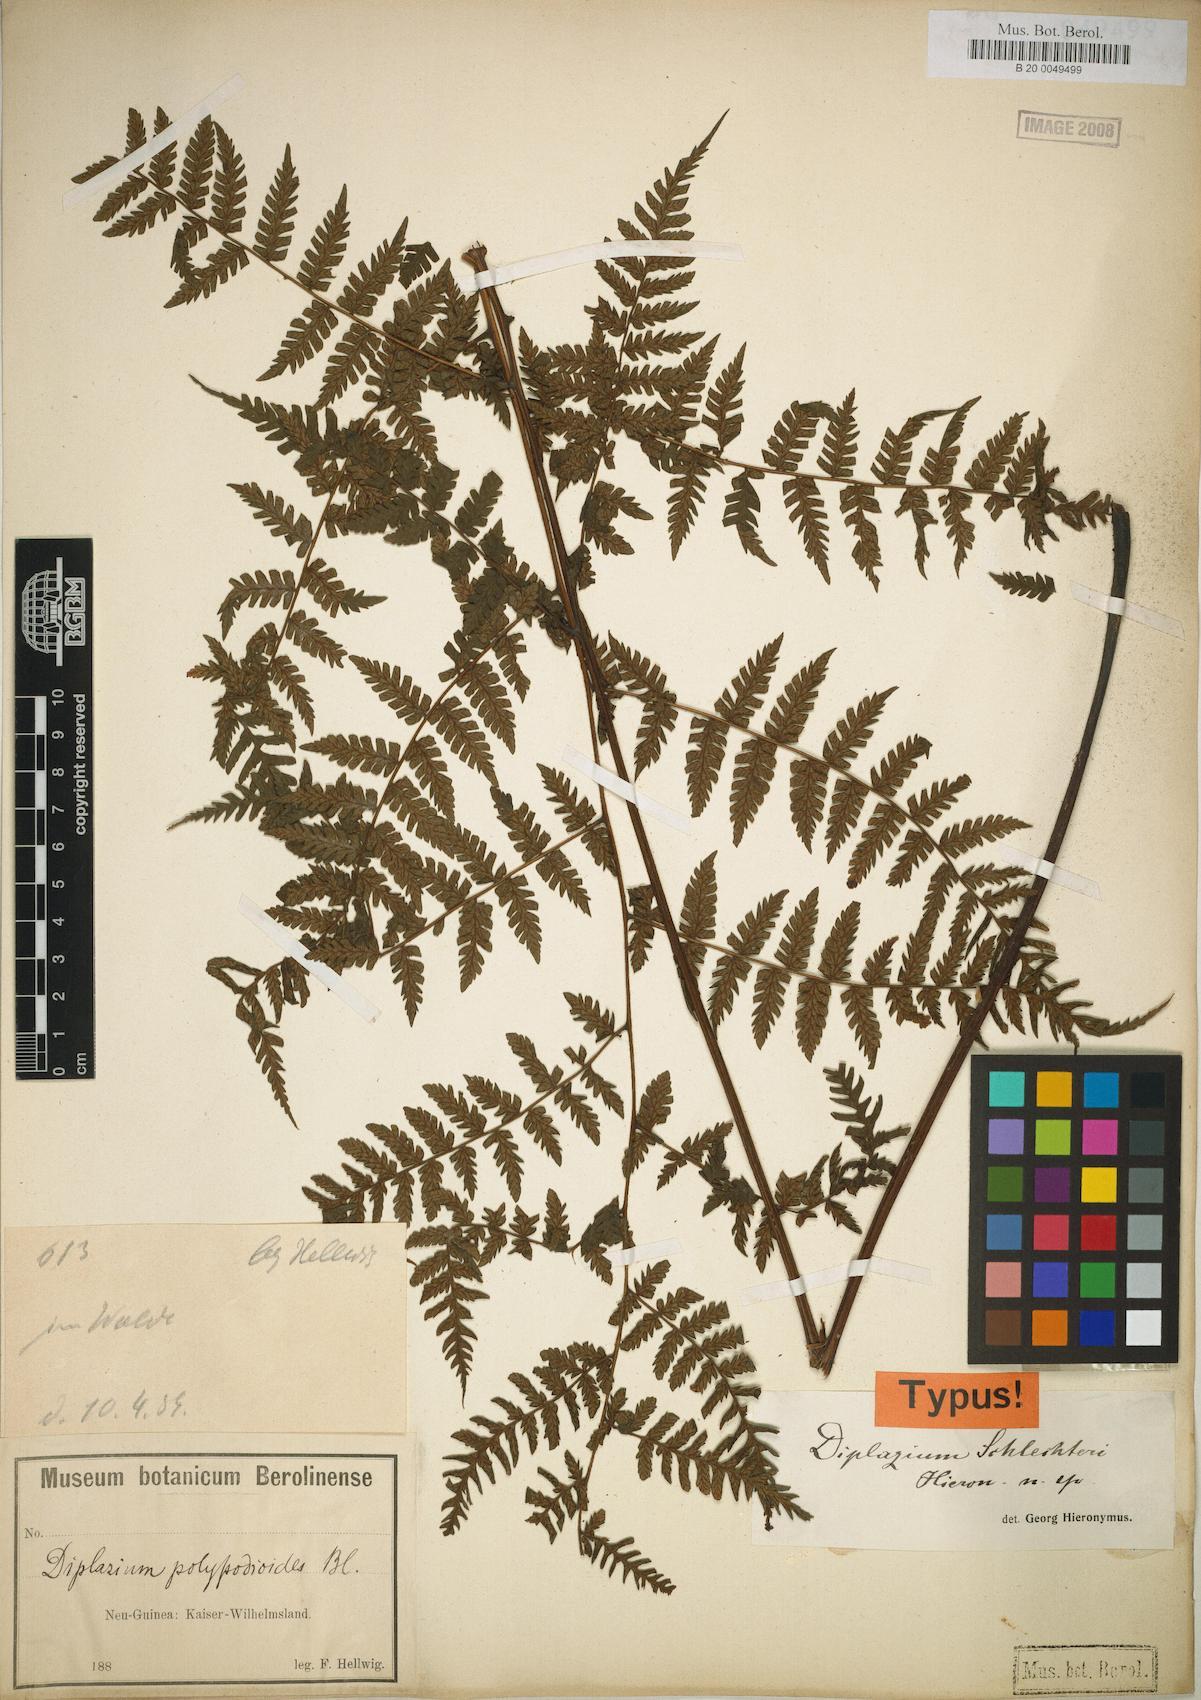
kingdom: Plantae
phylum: Tracheophyta
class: Polypodiopsida
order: Polypodiales
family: Athyriaceae
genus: Diplazium
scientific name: Diplazium schlechteri
